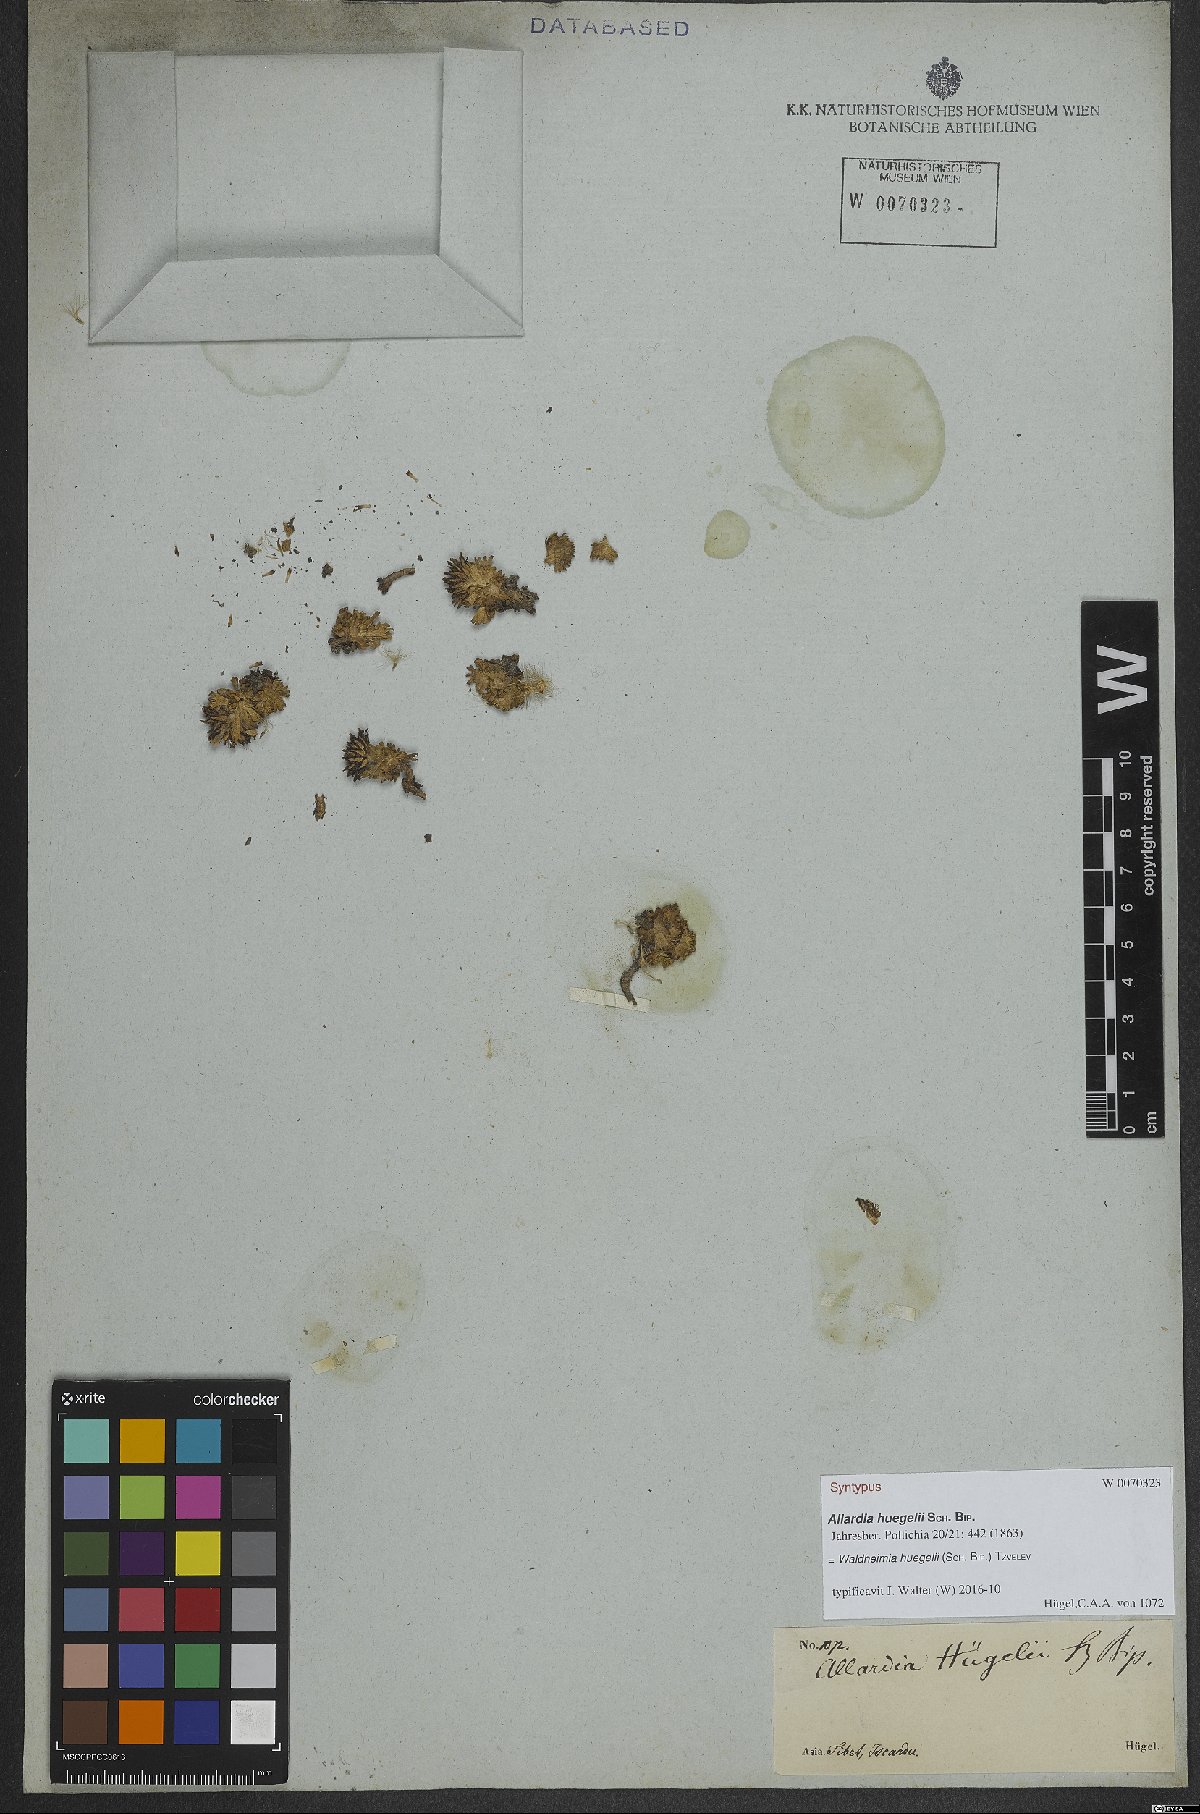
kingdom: Plantae
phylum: Tracheophyta
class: Magnoliopsida
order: Asterales
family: Asteraceae
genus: Allardia
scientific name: Allardia huegelii
